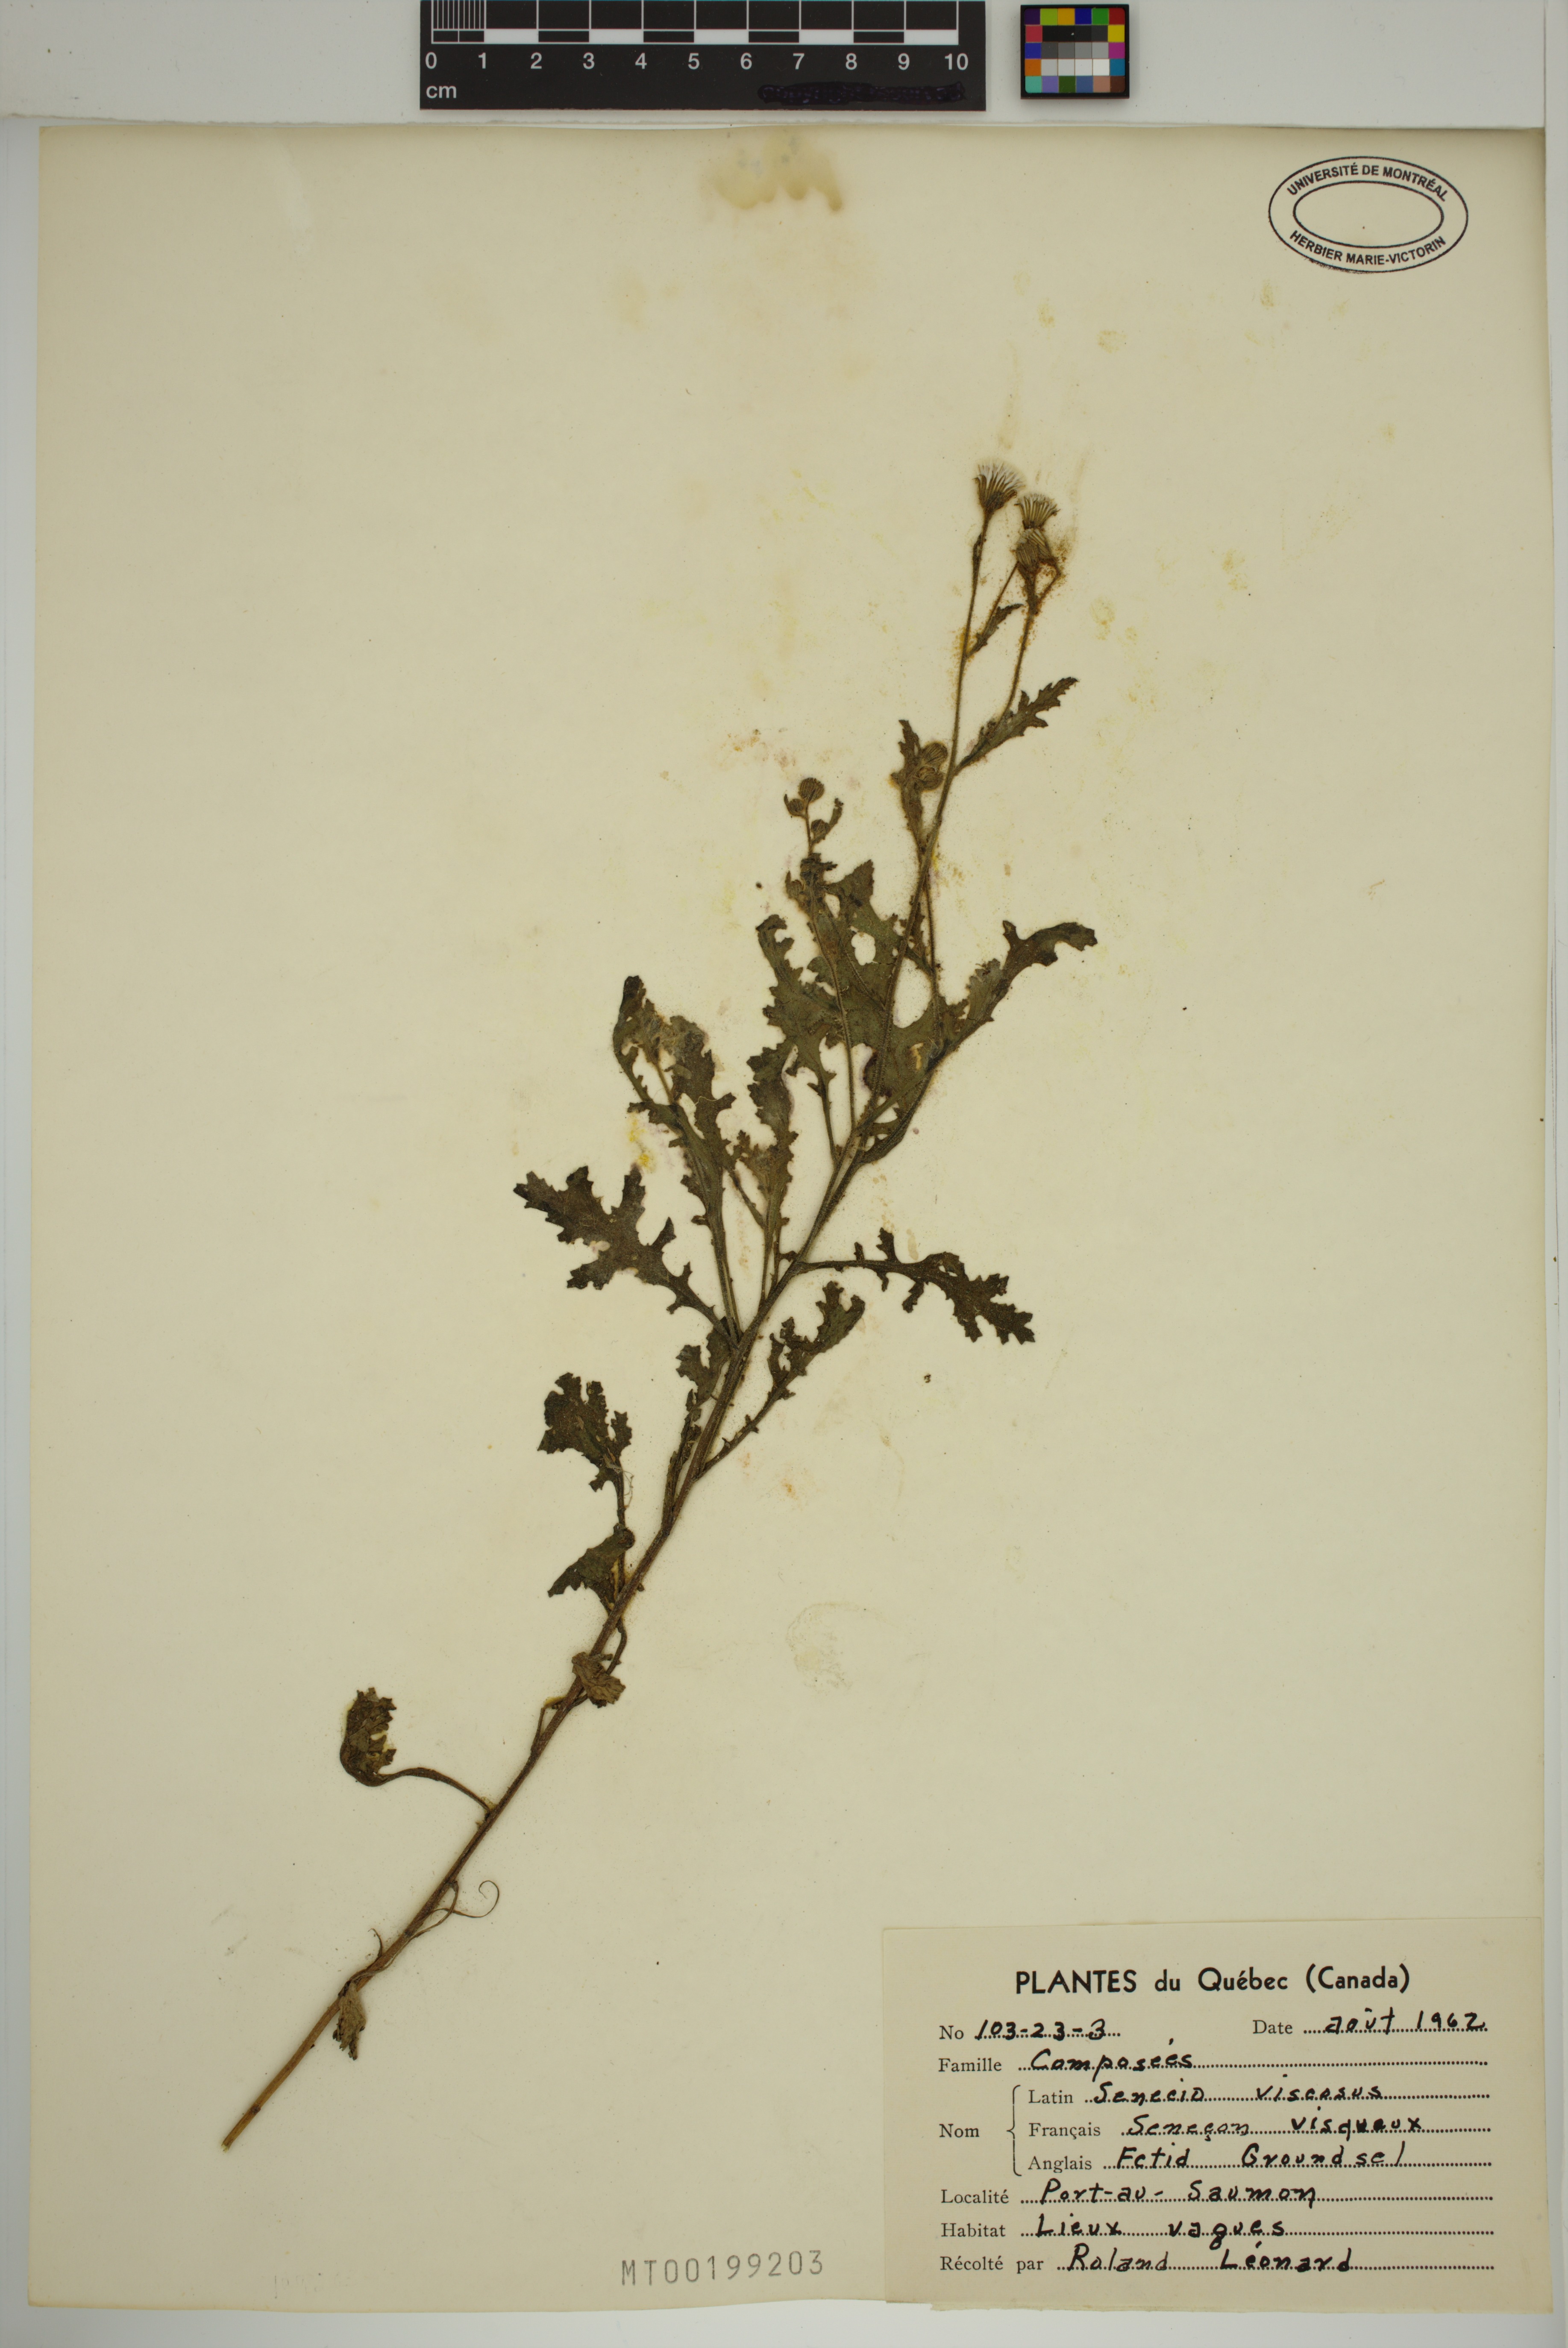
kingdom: Plantae
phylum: Tracheophyta
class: Magnoliopsida
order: Asterales
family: Asteraceae
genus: Senecio
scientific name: Senecio viscosus
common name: Sticky groundsel
